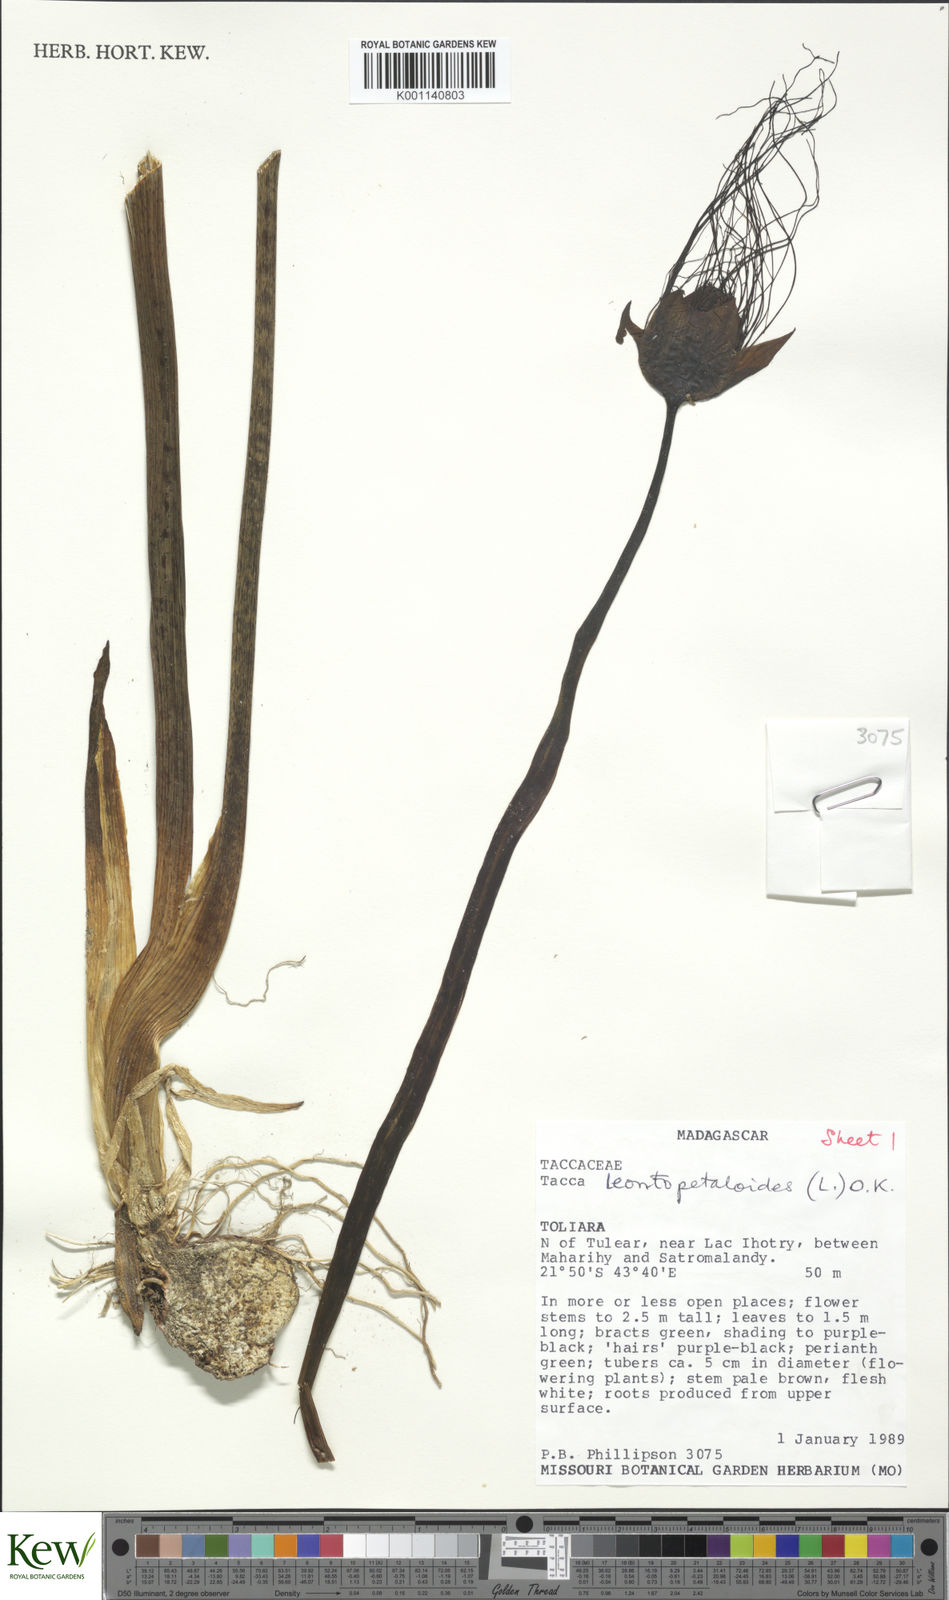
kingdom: Plantae
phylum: Tracheophyta
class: Liliopsida
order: Dioscoreales
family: Dioscoreaceae
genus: Tacca
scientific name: Tacca leontopetaloides
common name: Arrowroot
